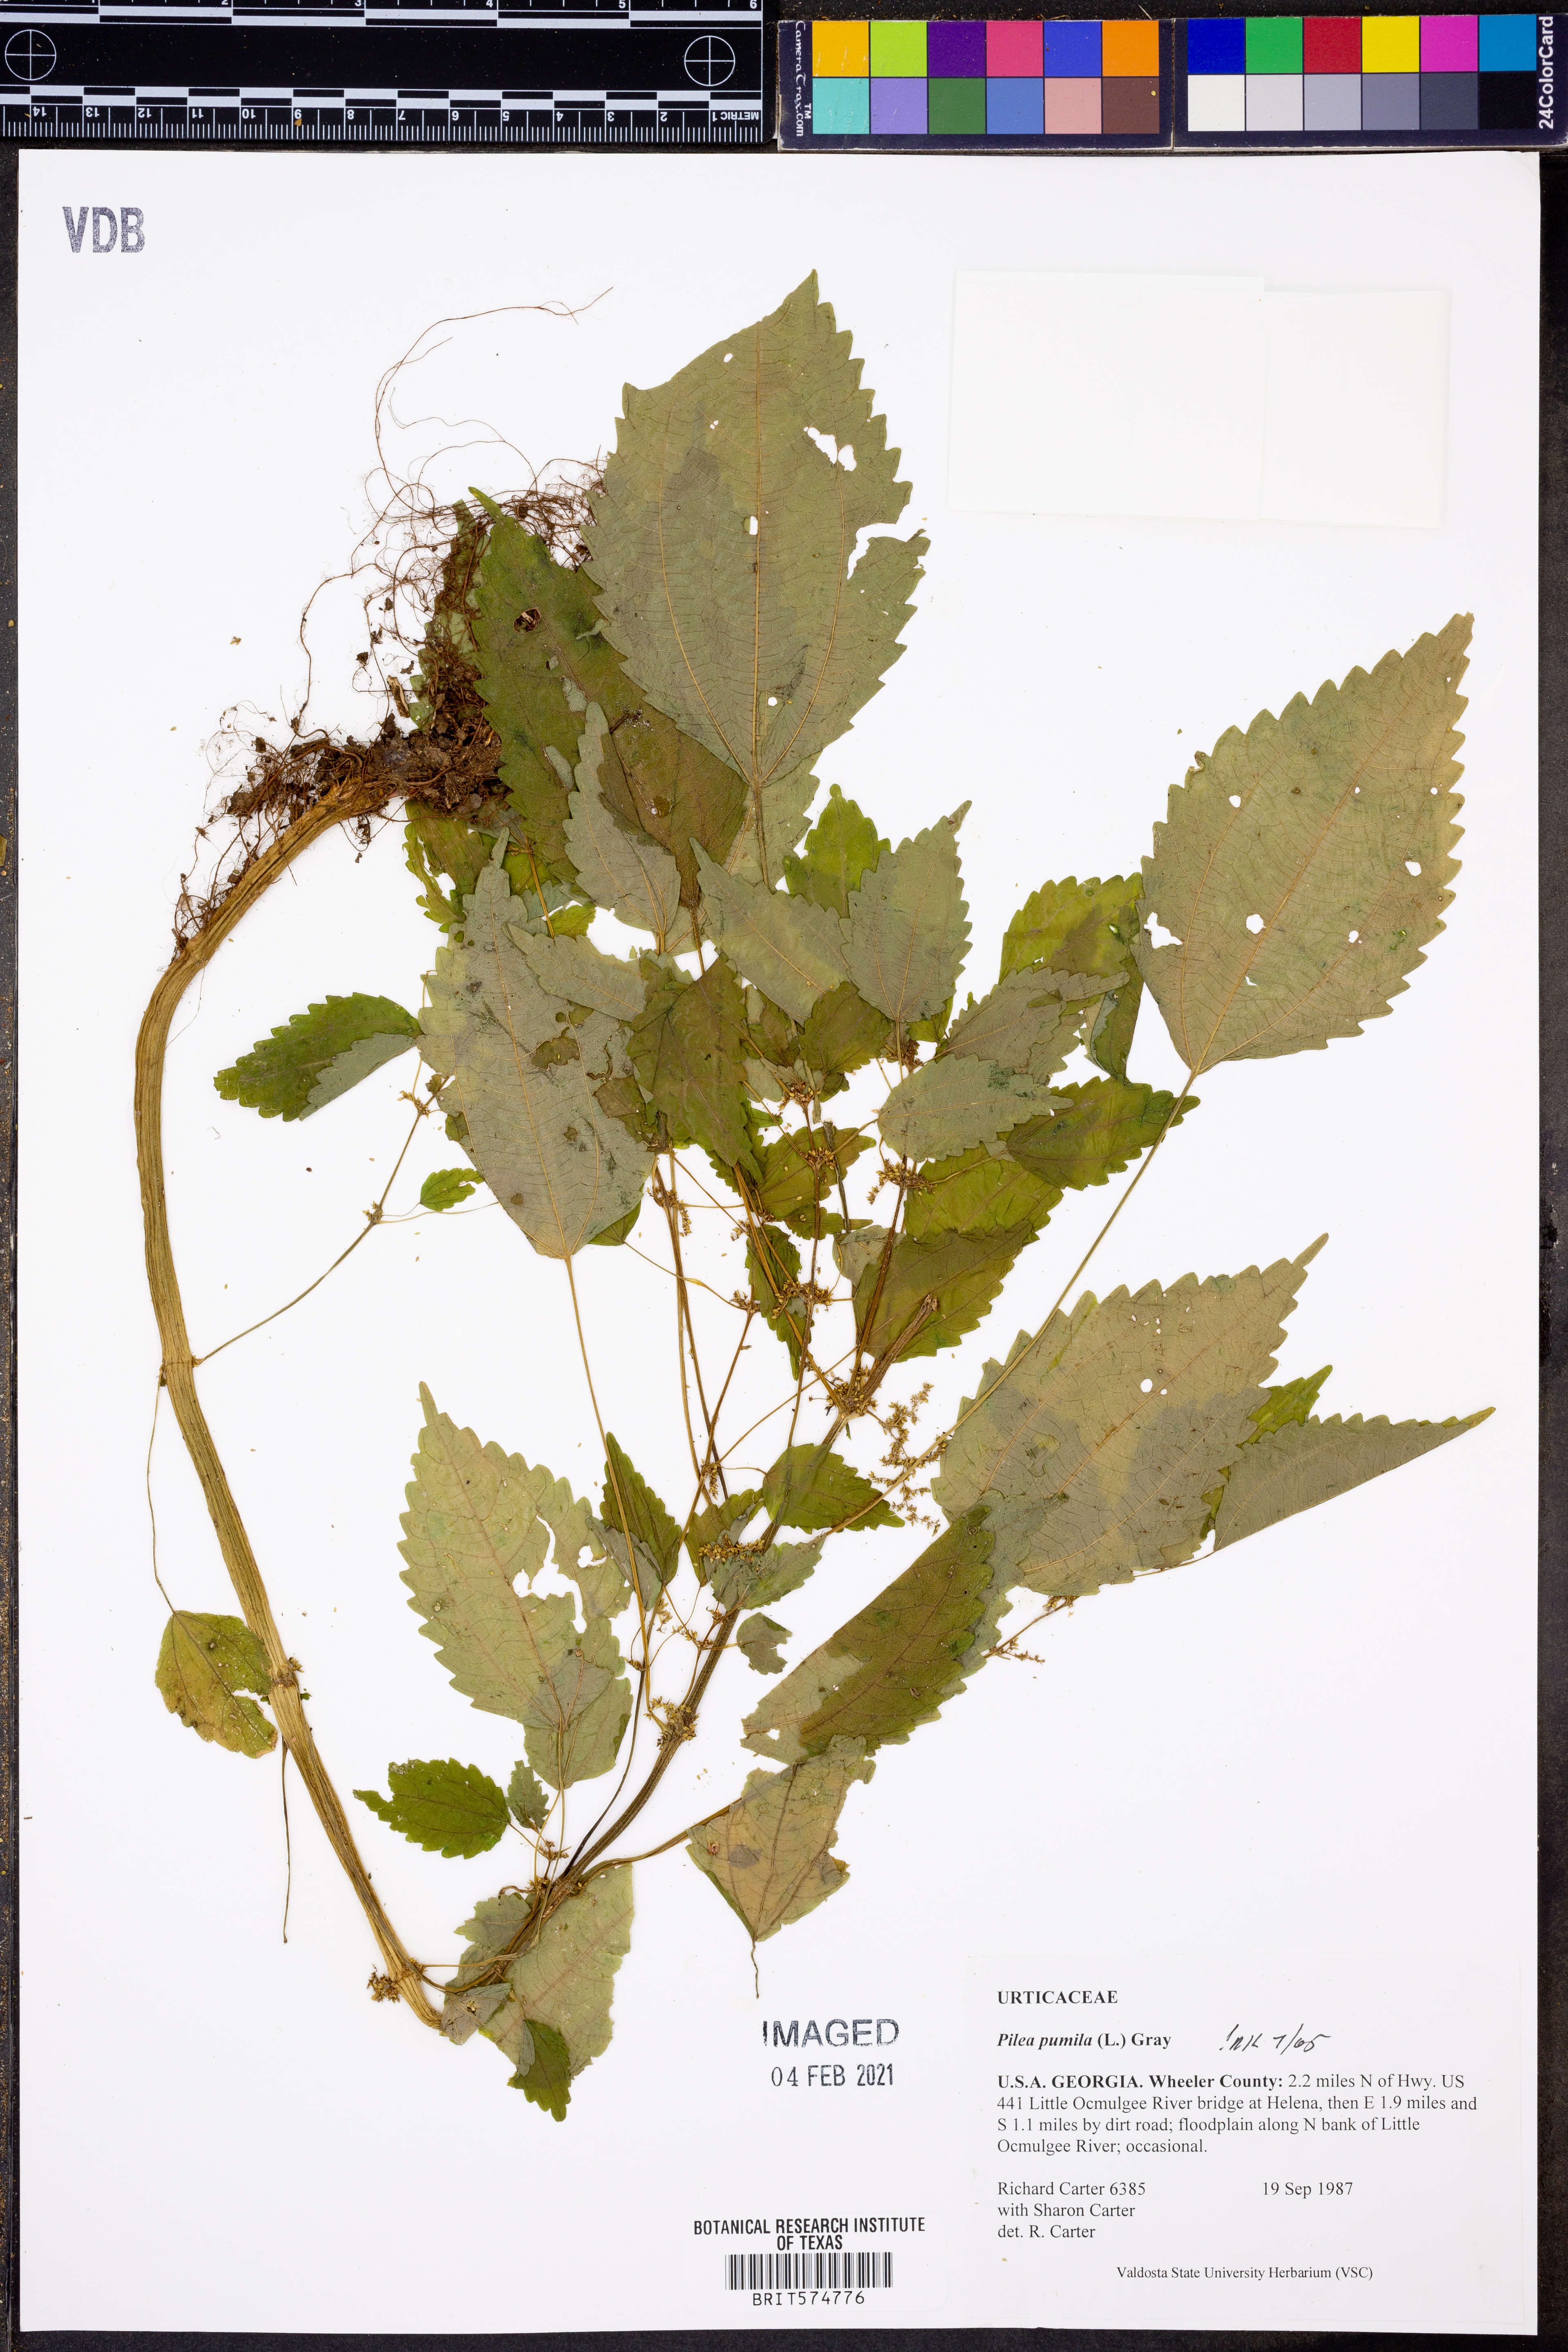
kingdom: Plantae
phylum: Tracheophyta
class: Magnoliopsida
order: Rosales
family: Urticaceae
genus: Pilea
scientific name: Pilea pumila
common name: Clearweed
